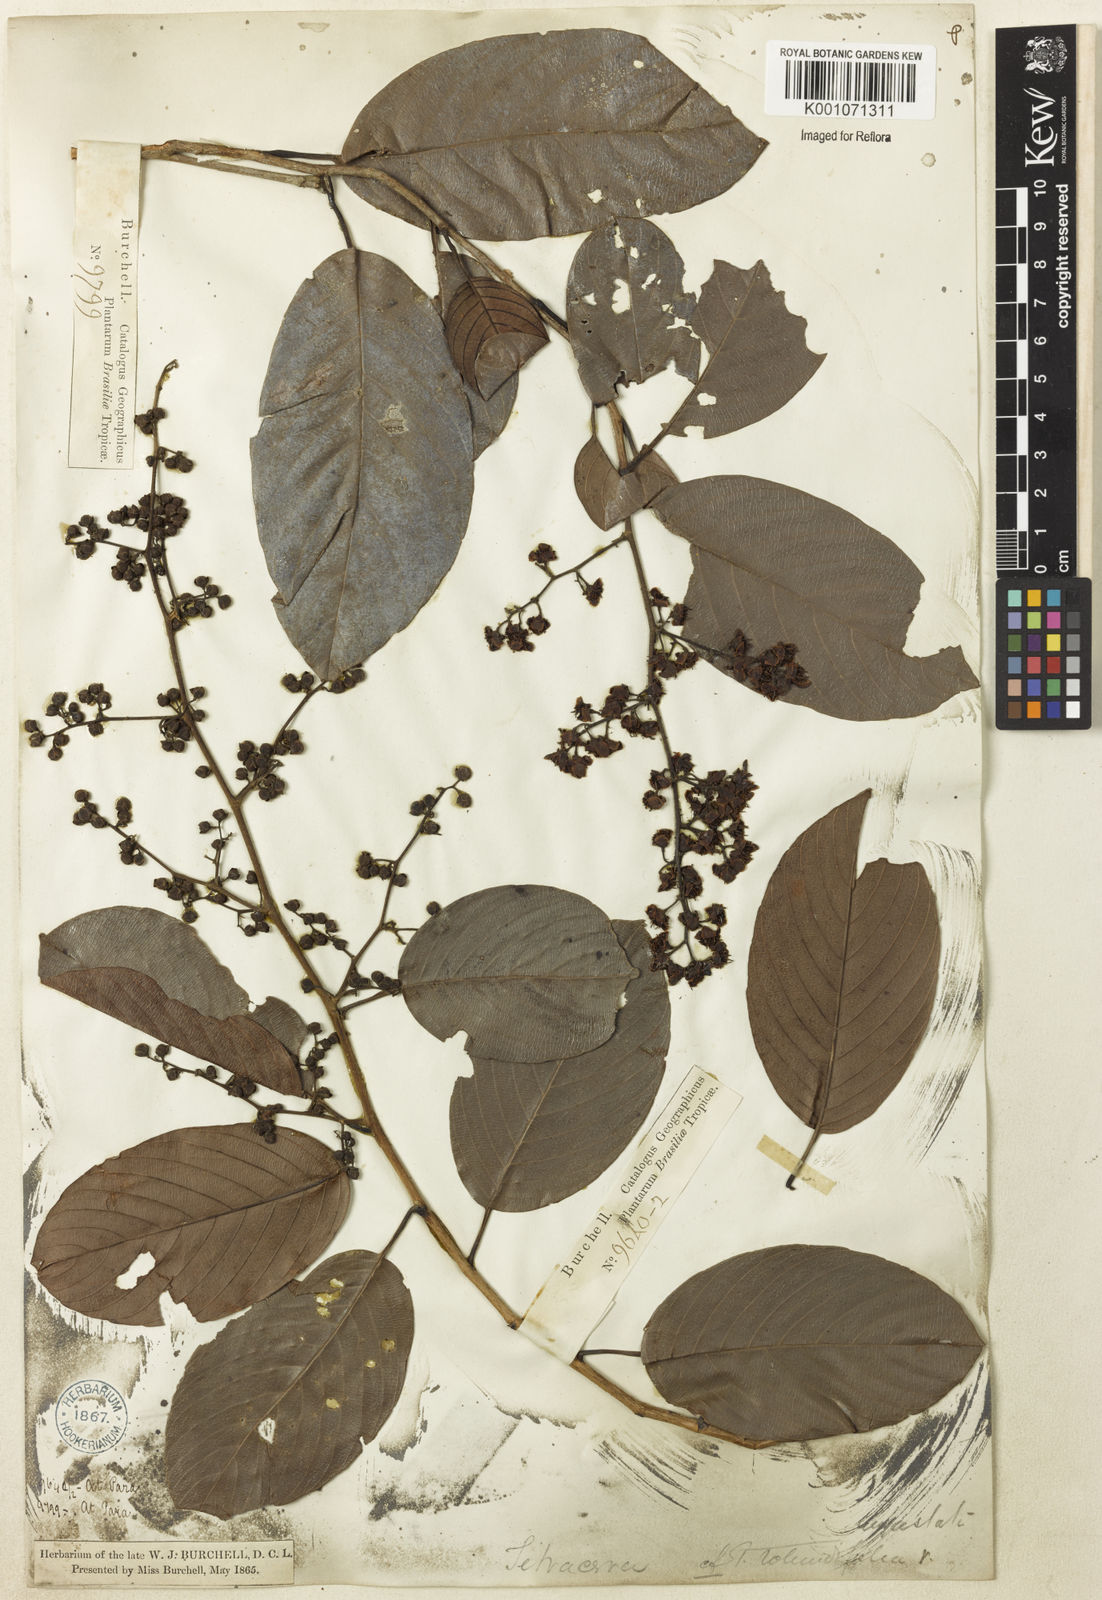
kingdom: Plantae
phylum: Tracheophyta
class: Magnoliopsida
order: Dilleniales
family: Dilleniaceae
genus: Tetracera
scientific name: Tetracera willdenowiana
